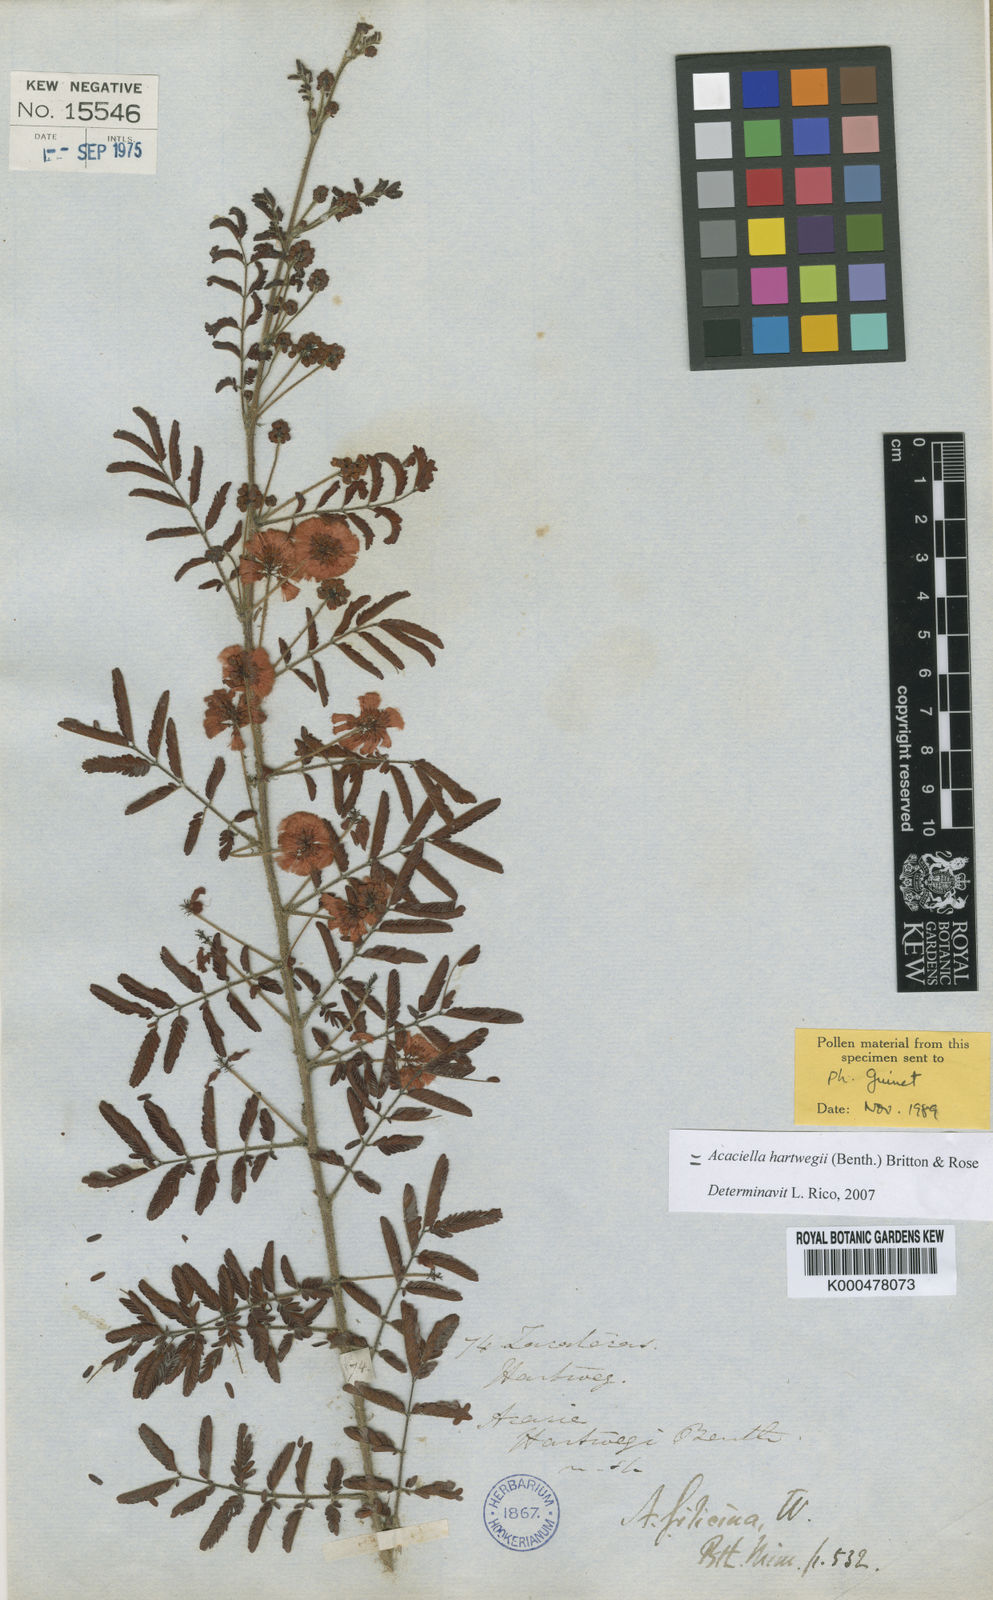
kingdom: Plantae
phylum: Tracheophyta
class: Magnoliopsida
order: Fabales
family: Fabaceae
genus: Acaciella
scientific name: Acaciella hartwegii
